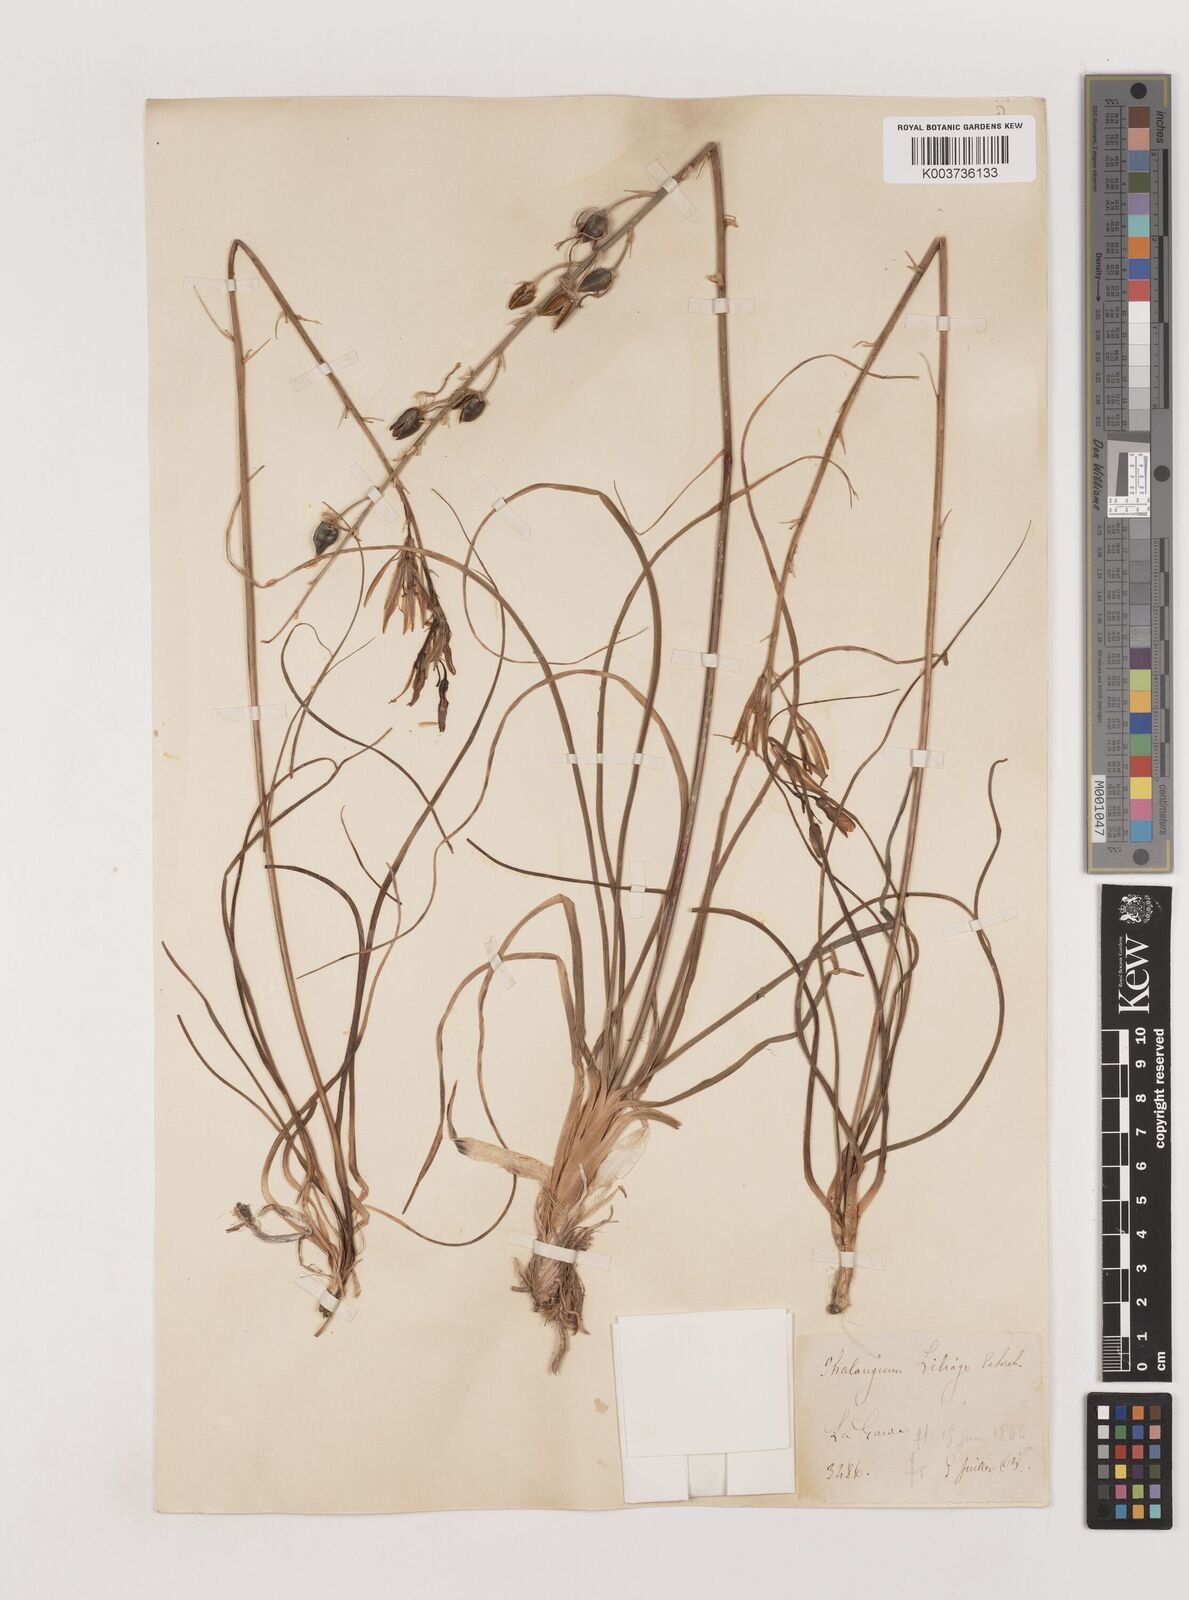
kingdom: Plantae
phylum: Tracheophyta
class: Liliopsida
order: Asparagales
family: Asparagaceae
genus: Anthericum
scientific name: Anthericum liliago
